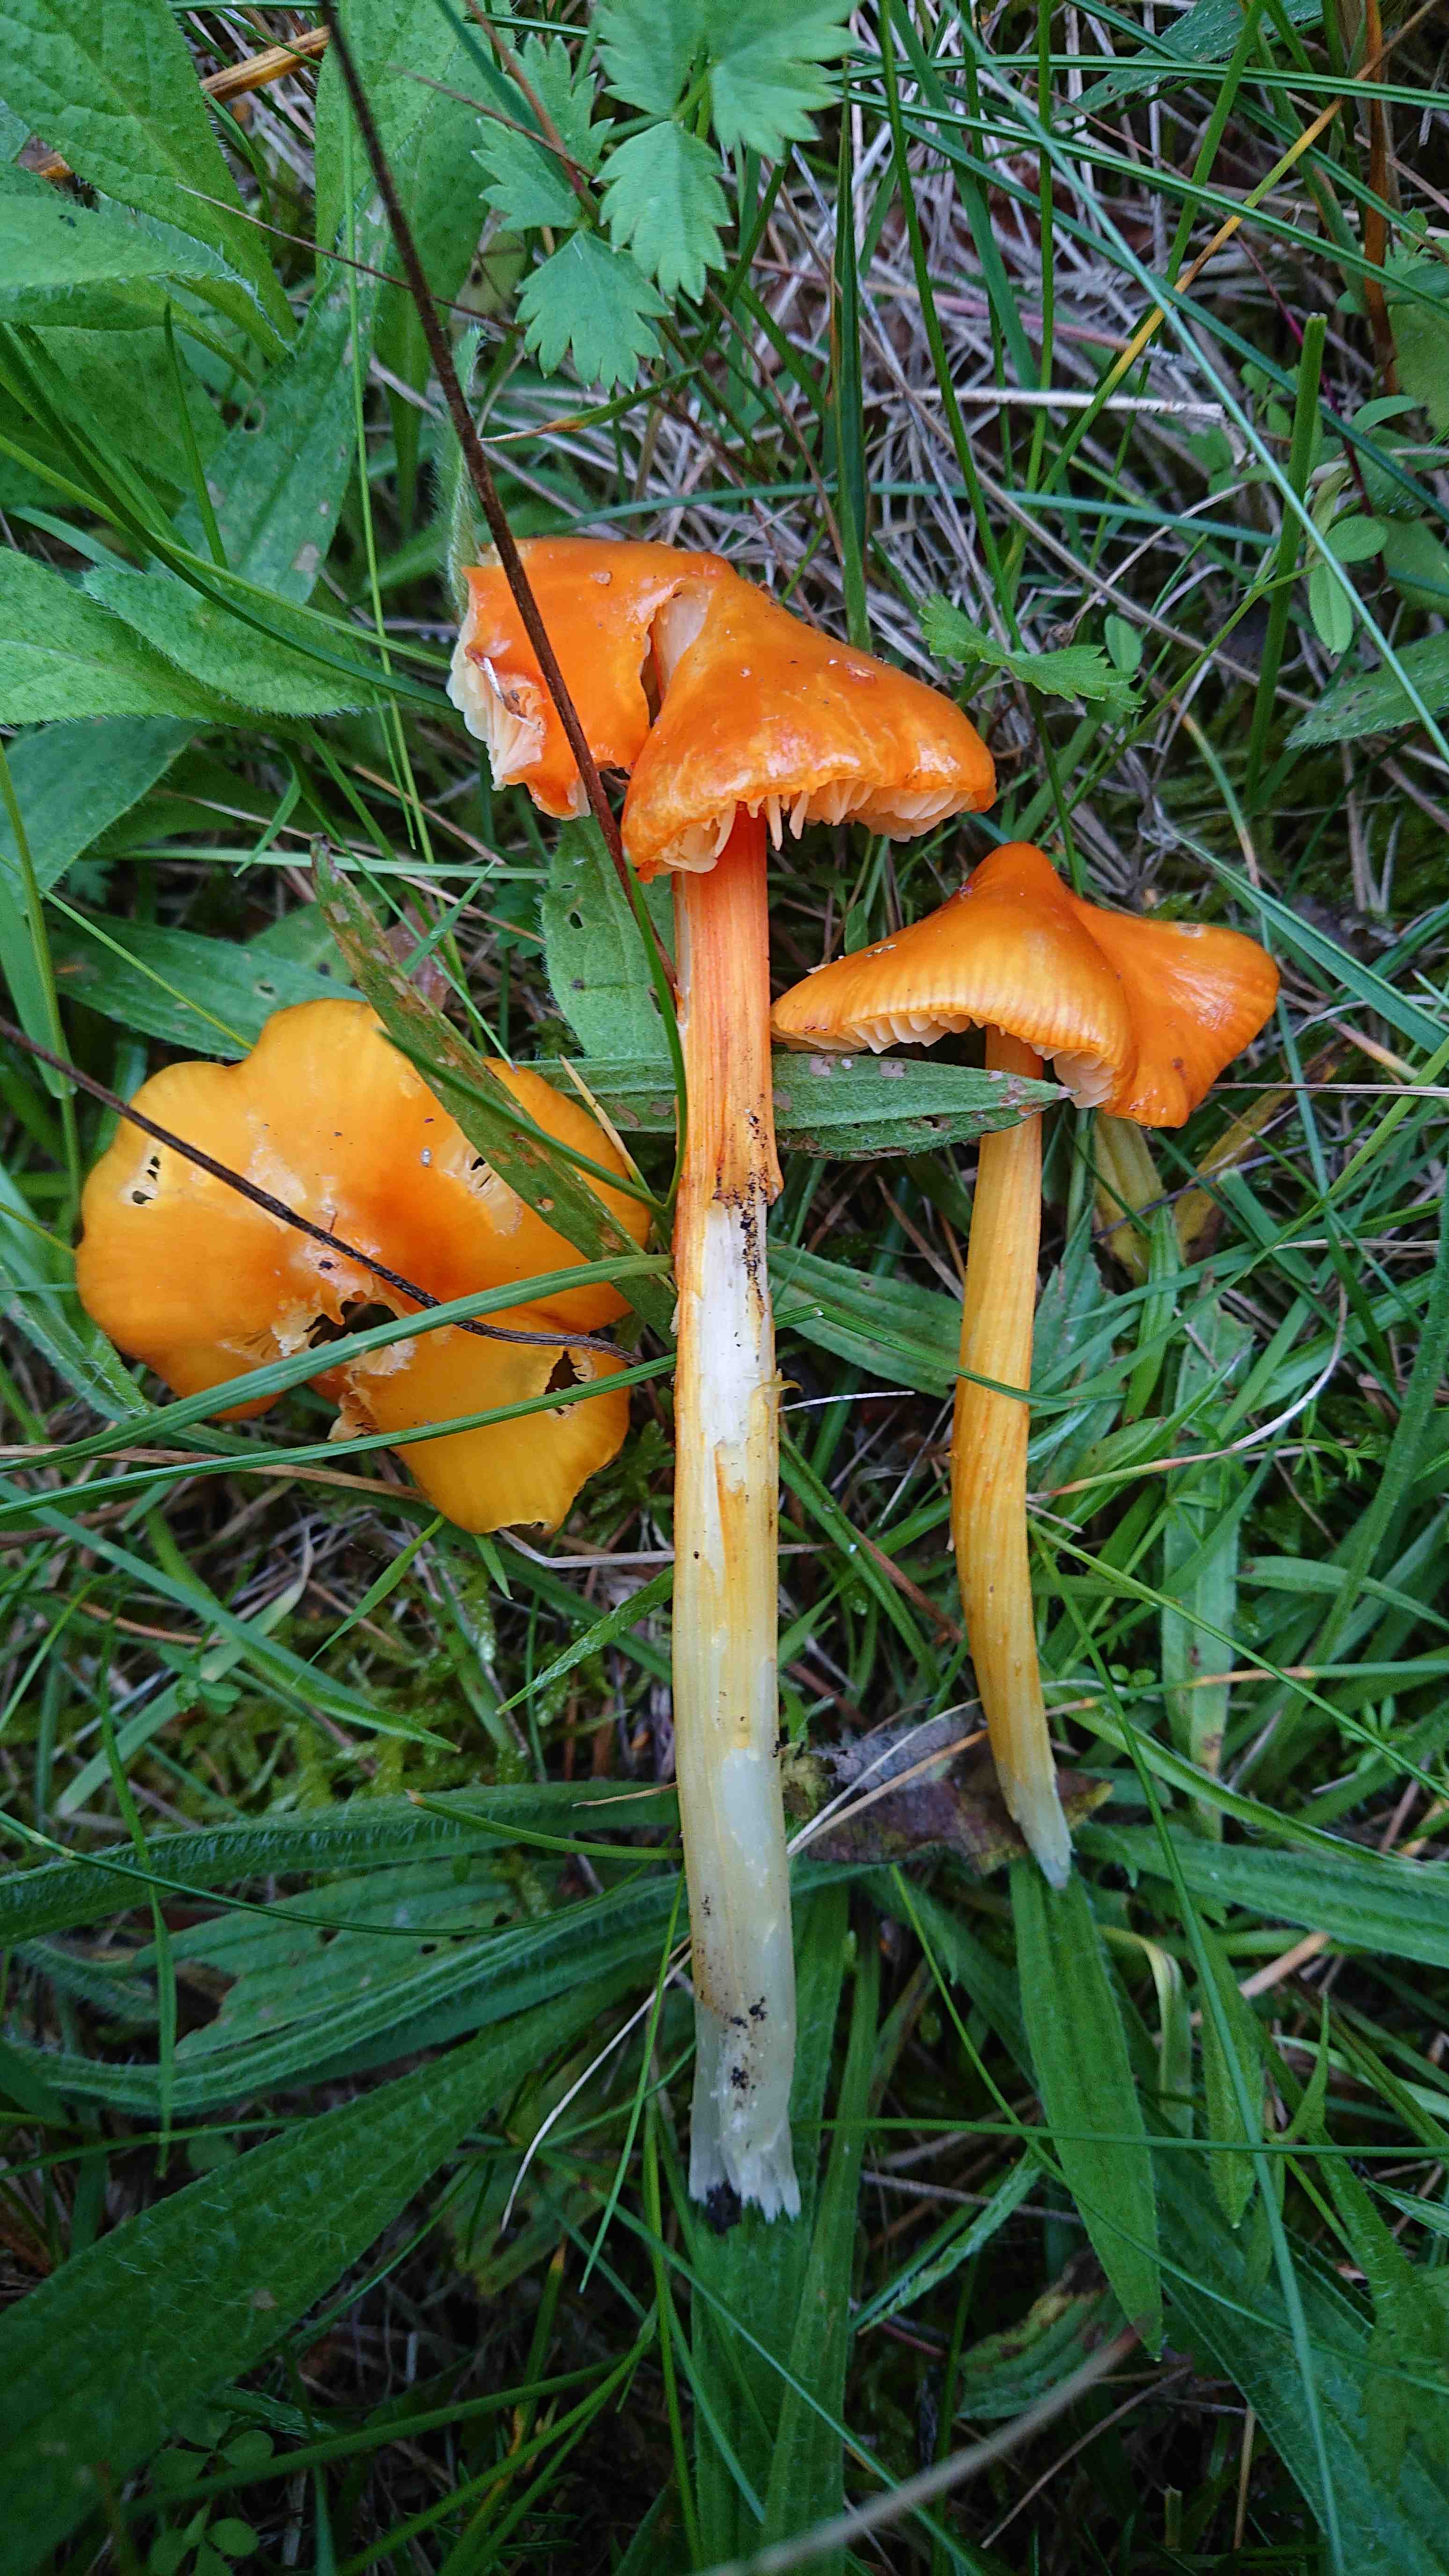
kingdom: Fungi
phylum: Basidiomycota
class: Agaricomycetes
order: Agaricales
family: Hygrophoraceae
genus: Hygrocybe
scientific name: Hygrocybe conica
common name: kegle-vokshat
